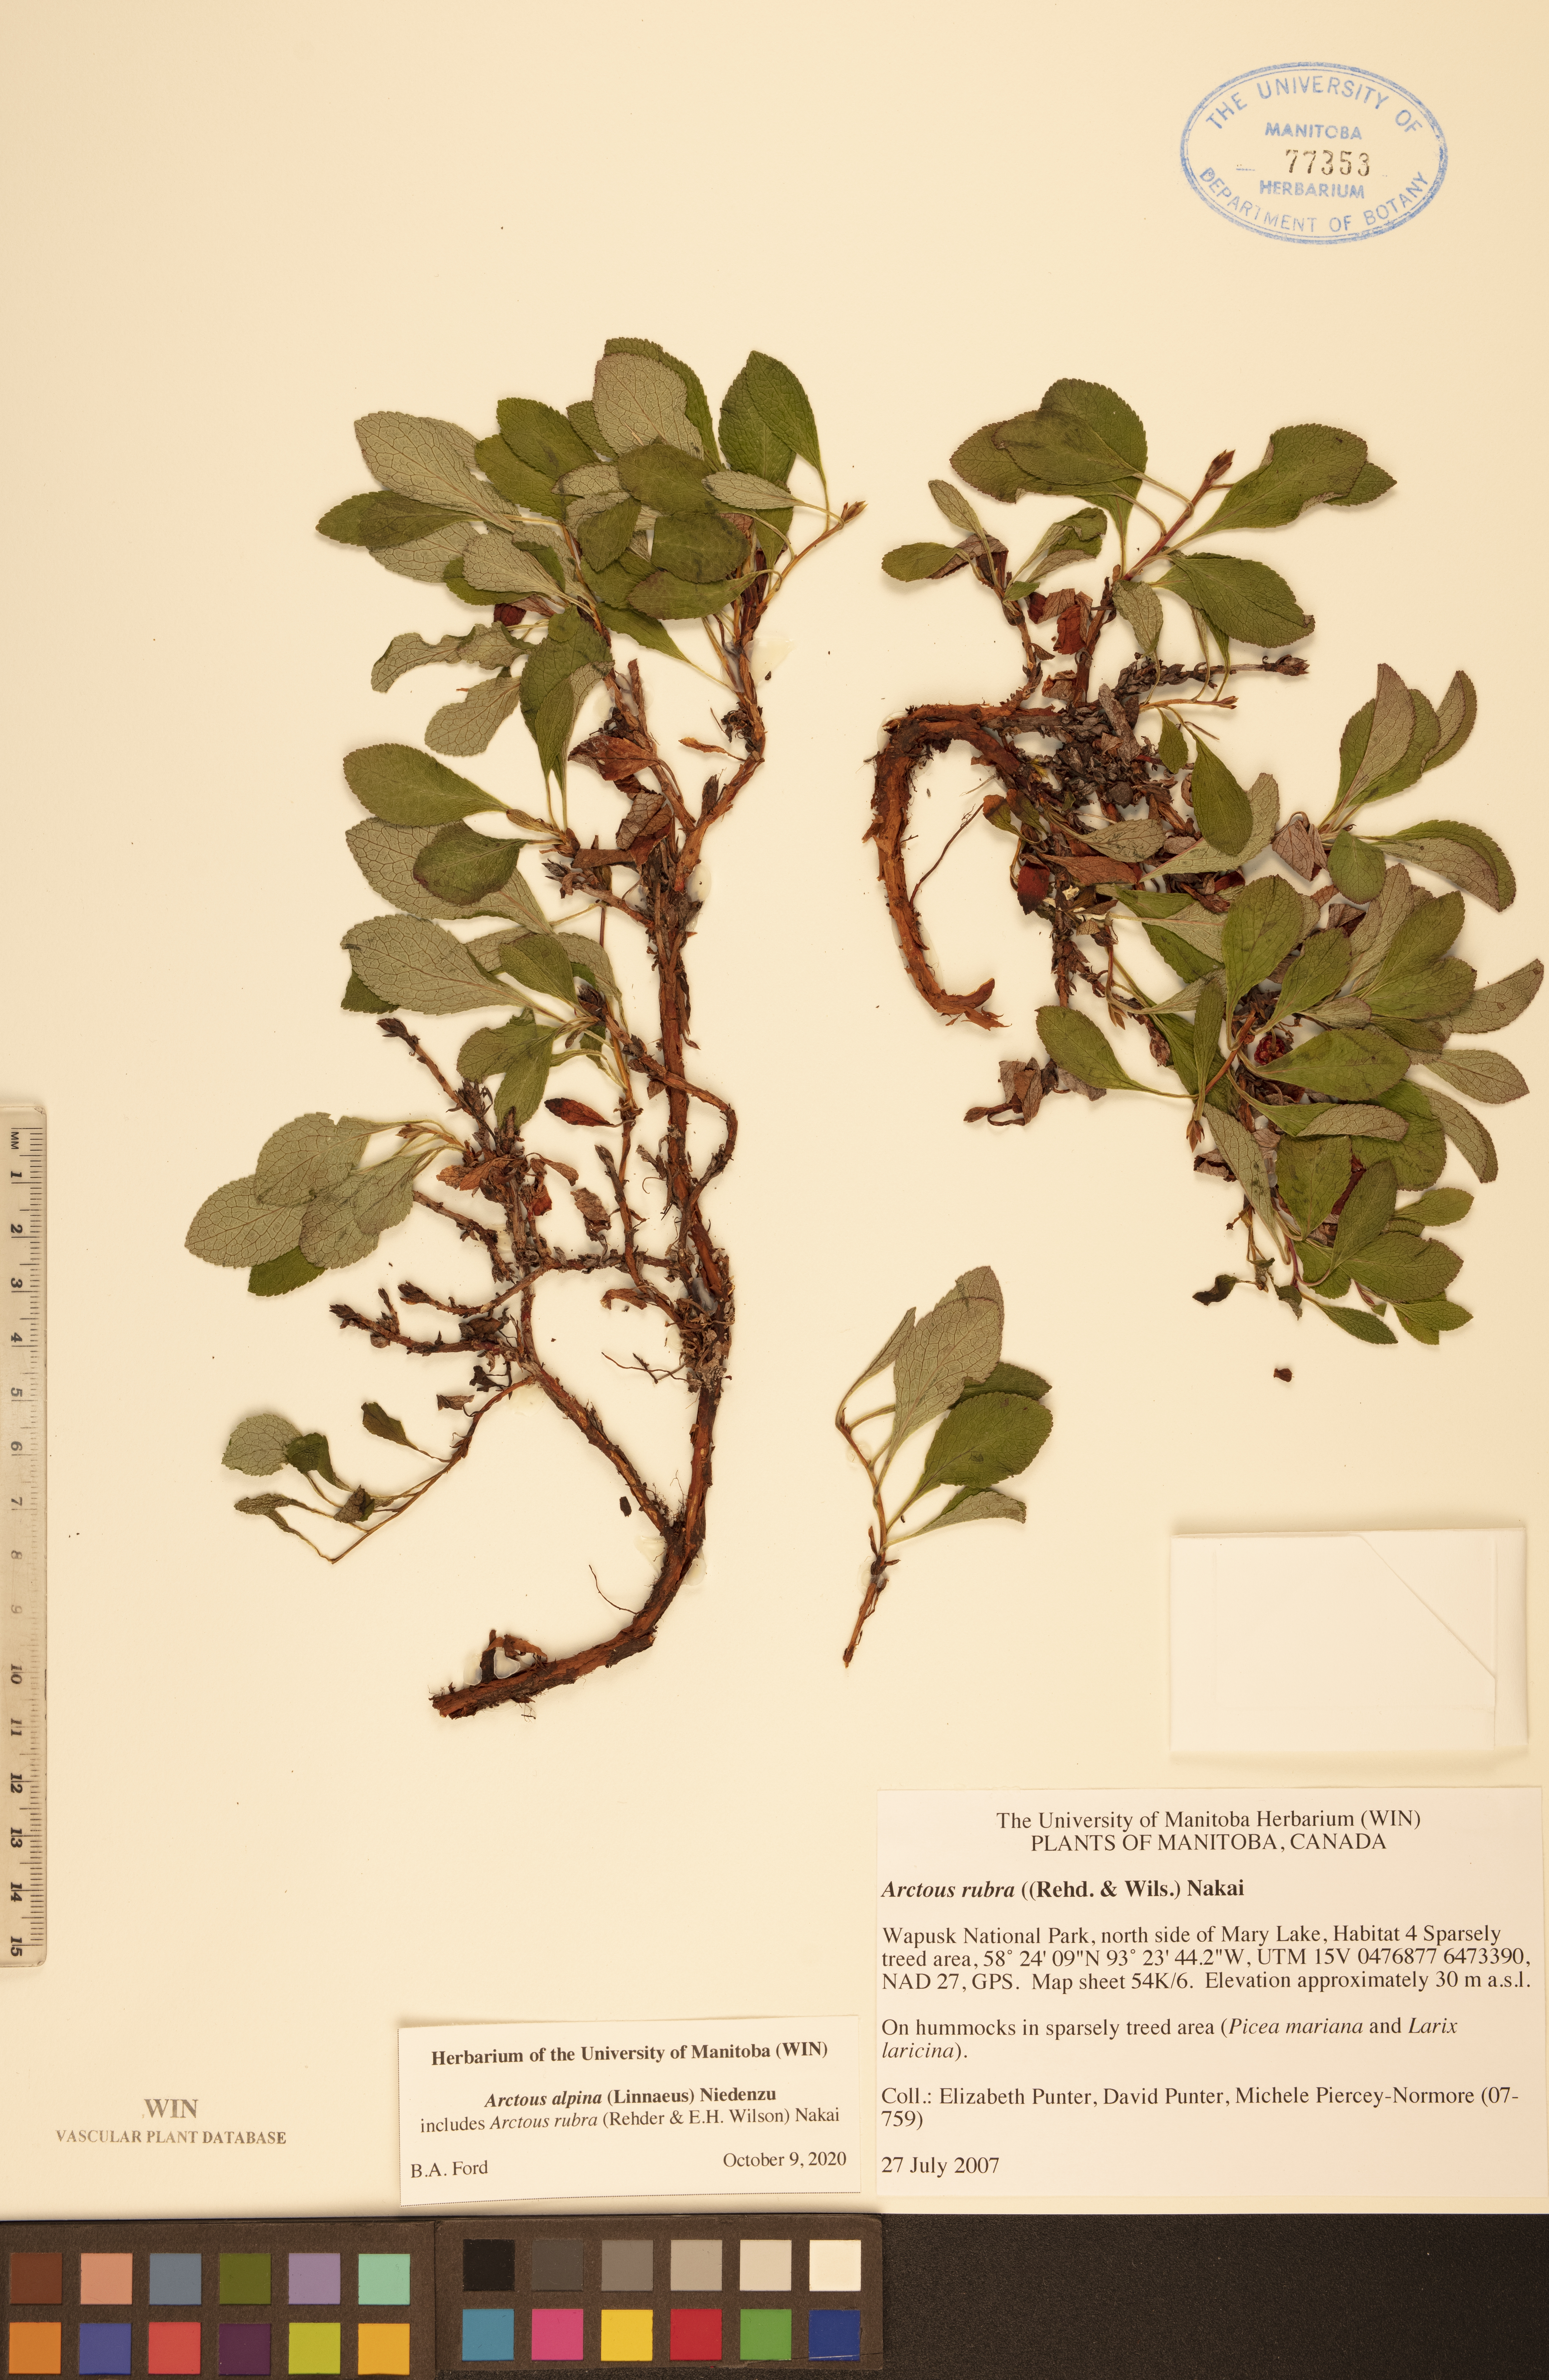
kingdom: Plantae
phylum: Tracheophyta
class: Magnoliopsida
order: Ericales
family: Ericaceae
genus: Arctostaphylos
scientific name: Arctostaphylos alpinus
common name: Alpine bearberry
